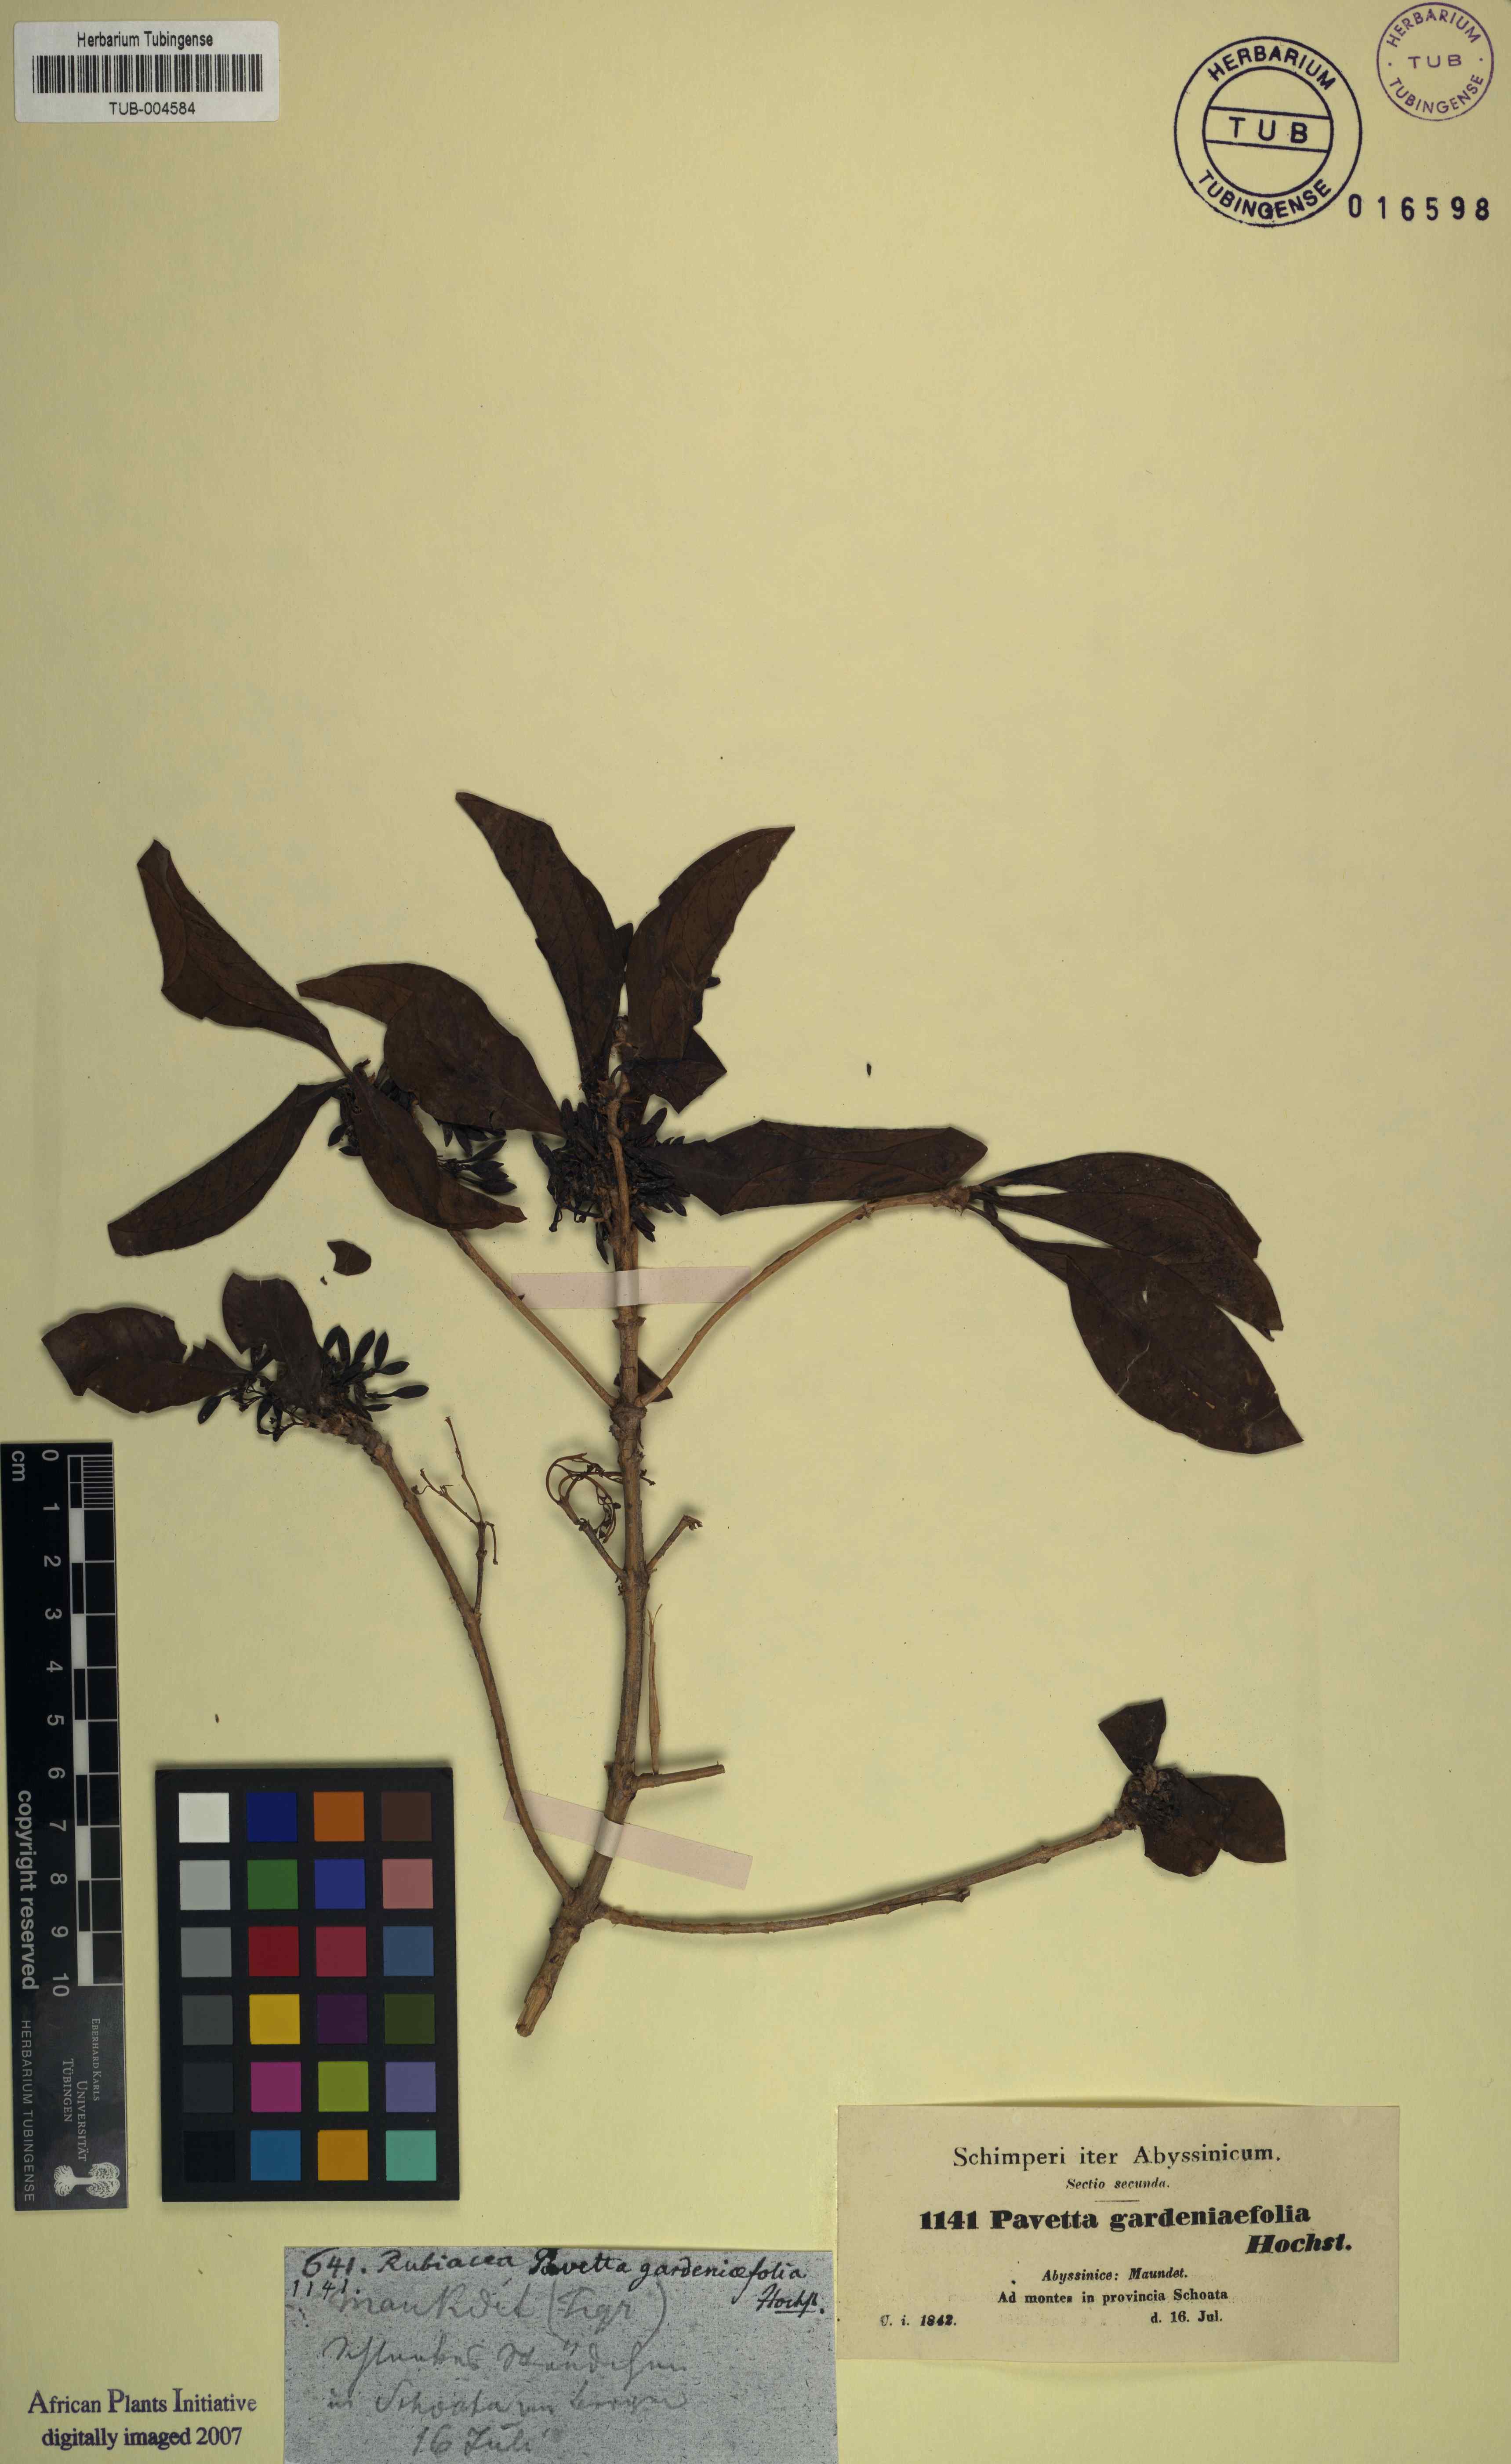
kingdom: Plantae
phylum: Tracheophyta
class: Magnoliopsida
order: Gentianales
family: Rubiaceae
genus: Pavetta
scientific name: Pavetta gardeniifolia
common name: Common brides-bush
